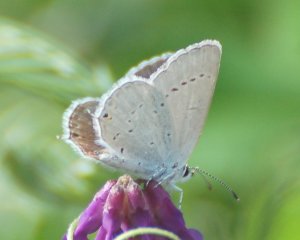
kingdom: Animalia
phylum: Arthropoda
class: Insecta
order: Lepidoptera
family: Lycaenidae
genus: Elkalyce
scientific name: Elkalyce amyntula
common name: Western Tailed-Blue
